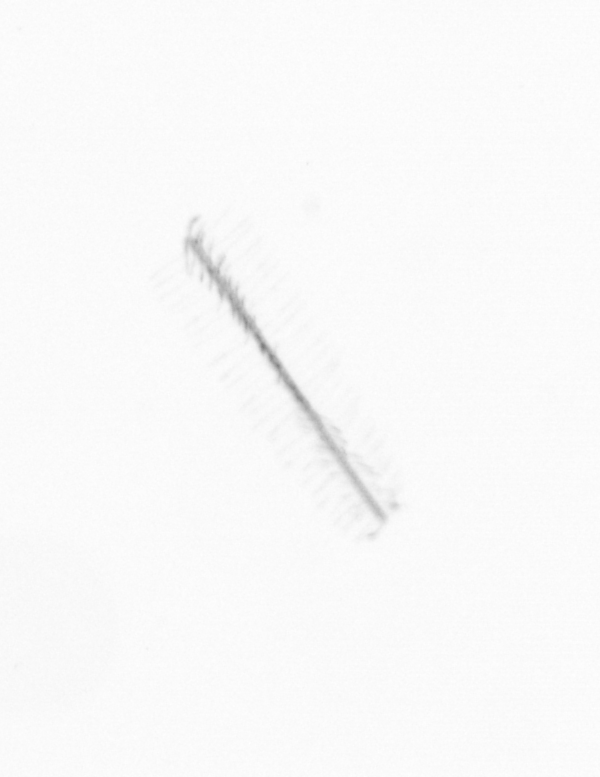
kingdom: Chromista
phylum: Ochrophyta
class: Bacillariophyceae
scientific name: Bacillariophyceae
